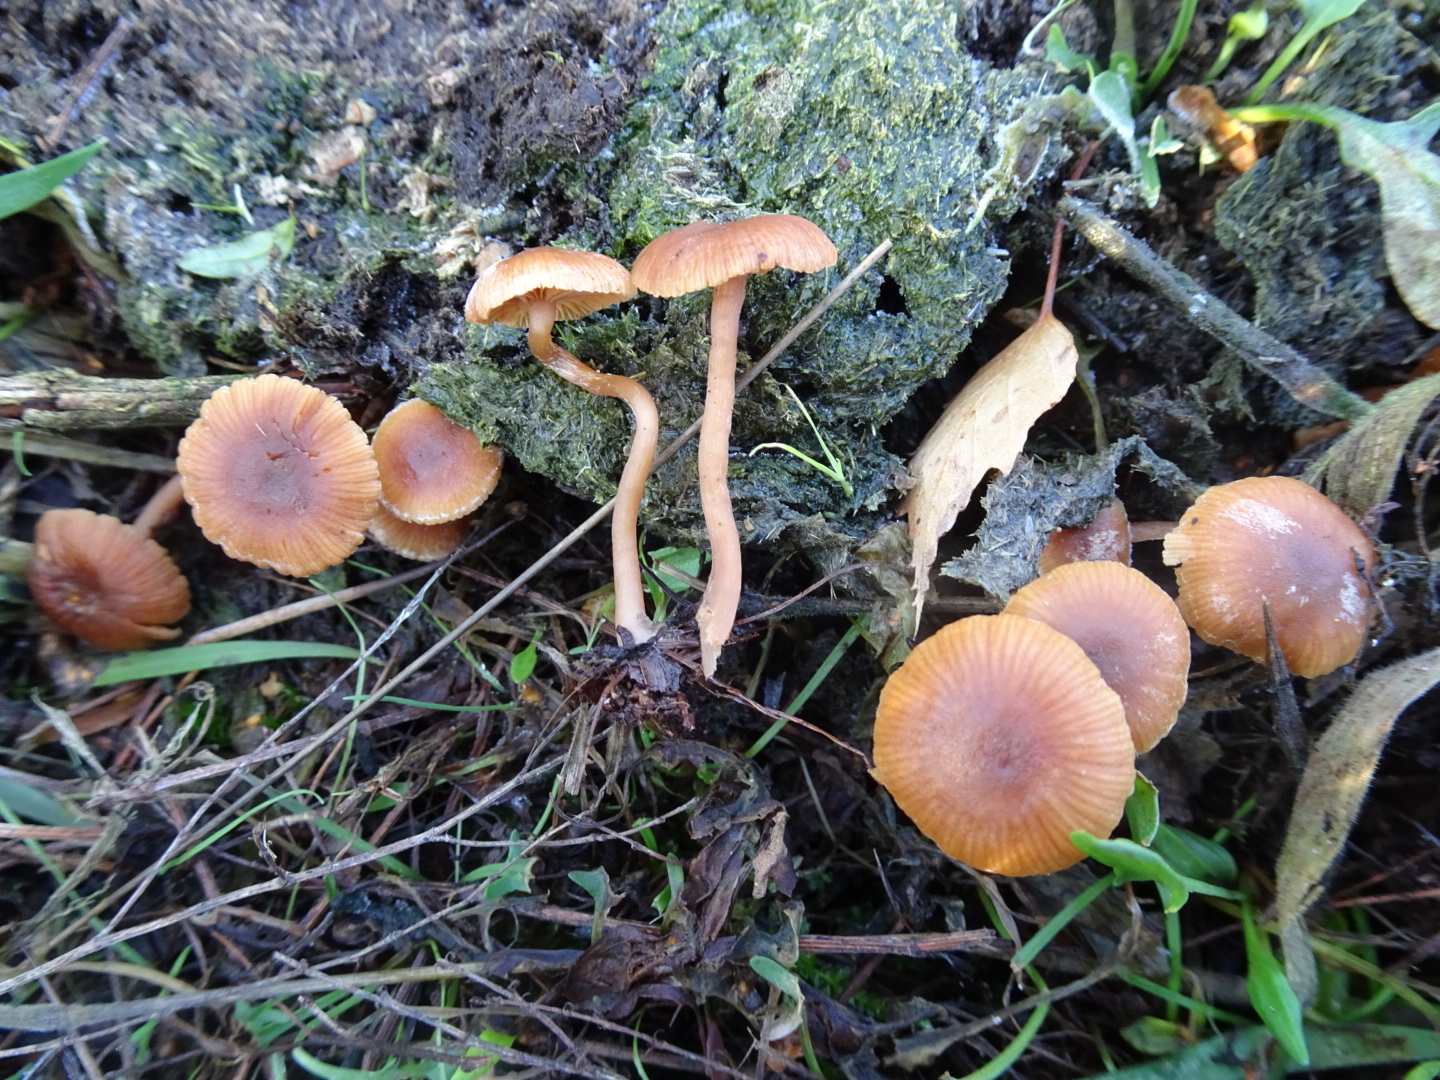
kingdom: Fungi
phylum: Basidiomycota
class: Agaricomycetes
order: Agaricales
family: Hydnangiaceae
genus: Laccaria
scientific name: Laccaria laccata
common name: rød ametysthat
